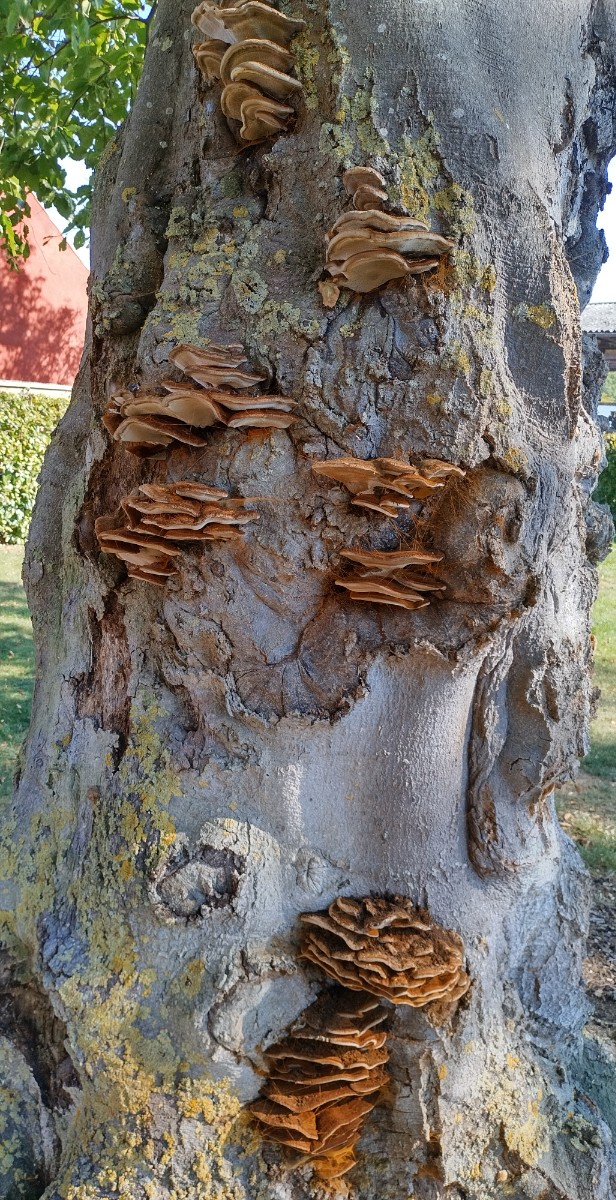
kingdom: Fungi
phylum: Basidiomycota
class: Agaricomycetes
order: Hymenochaetales
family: Hymenochaetaceae
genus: Inonotus
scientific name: Inonotus cuticularis
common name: kroghåret spejlporesvamp
